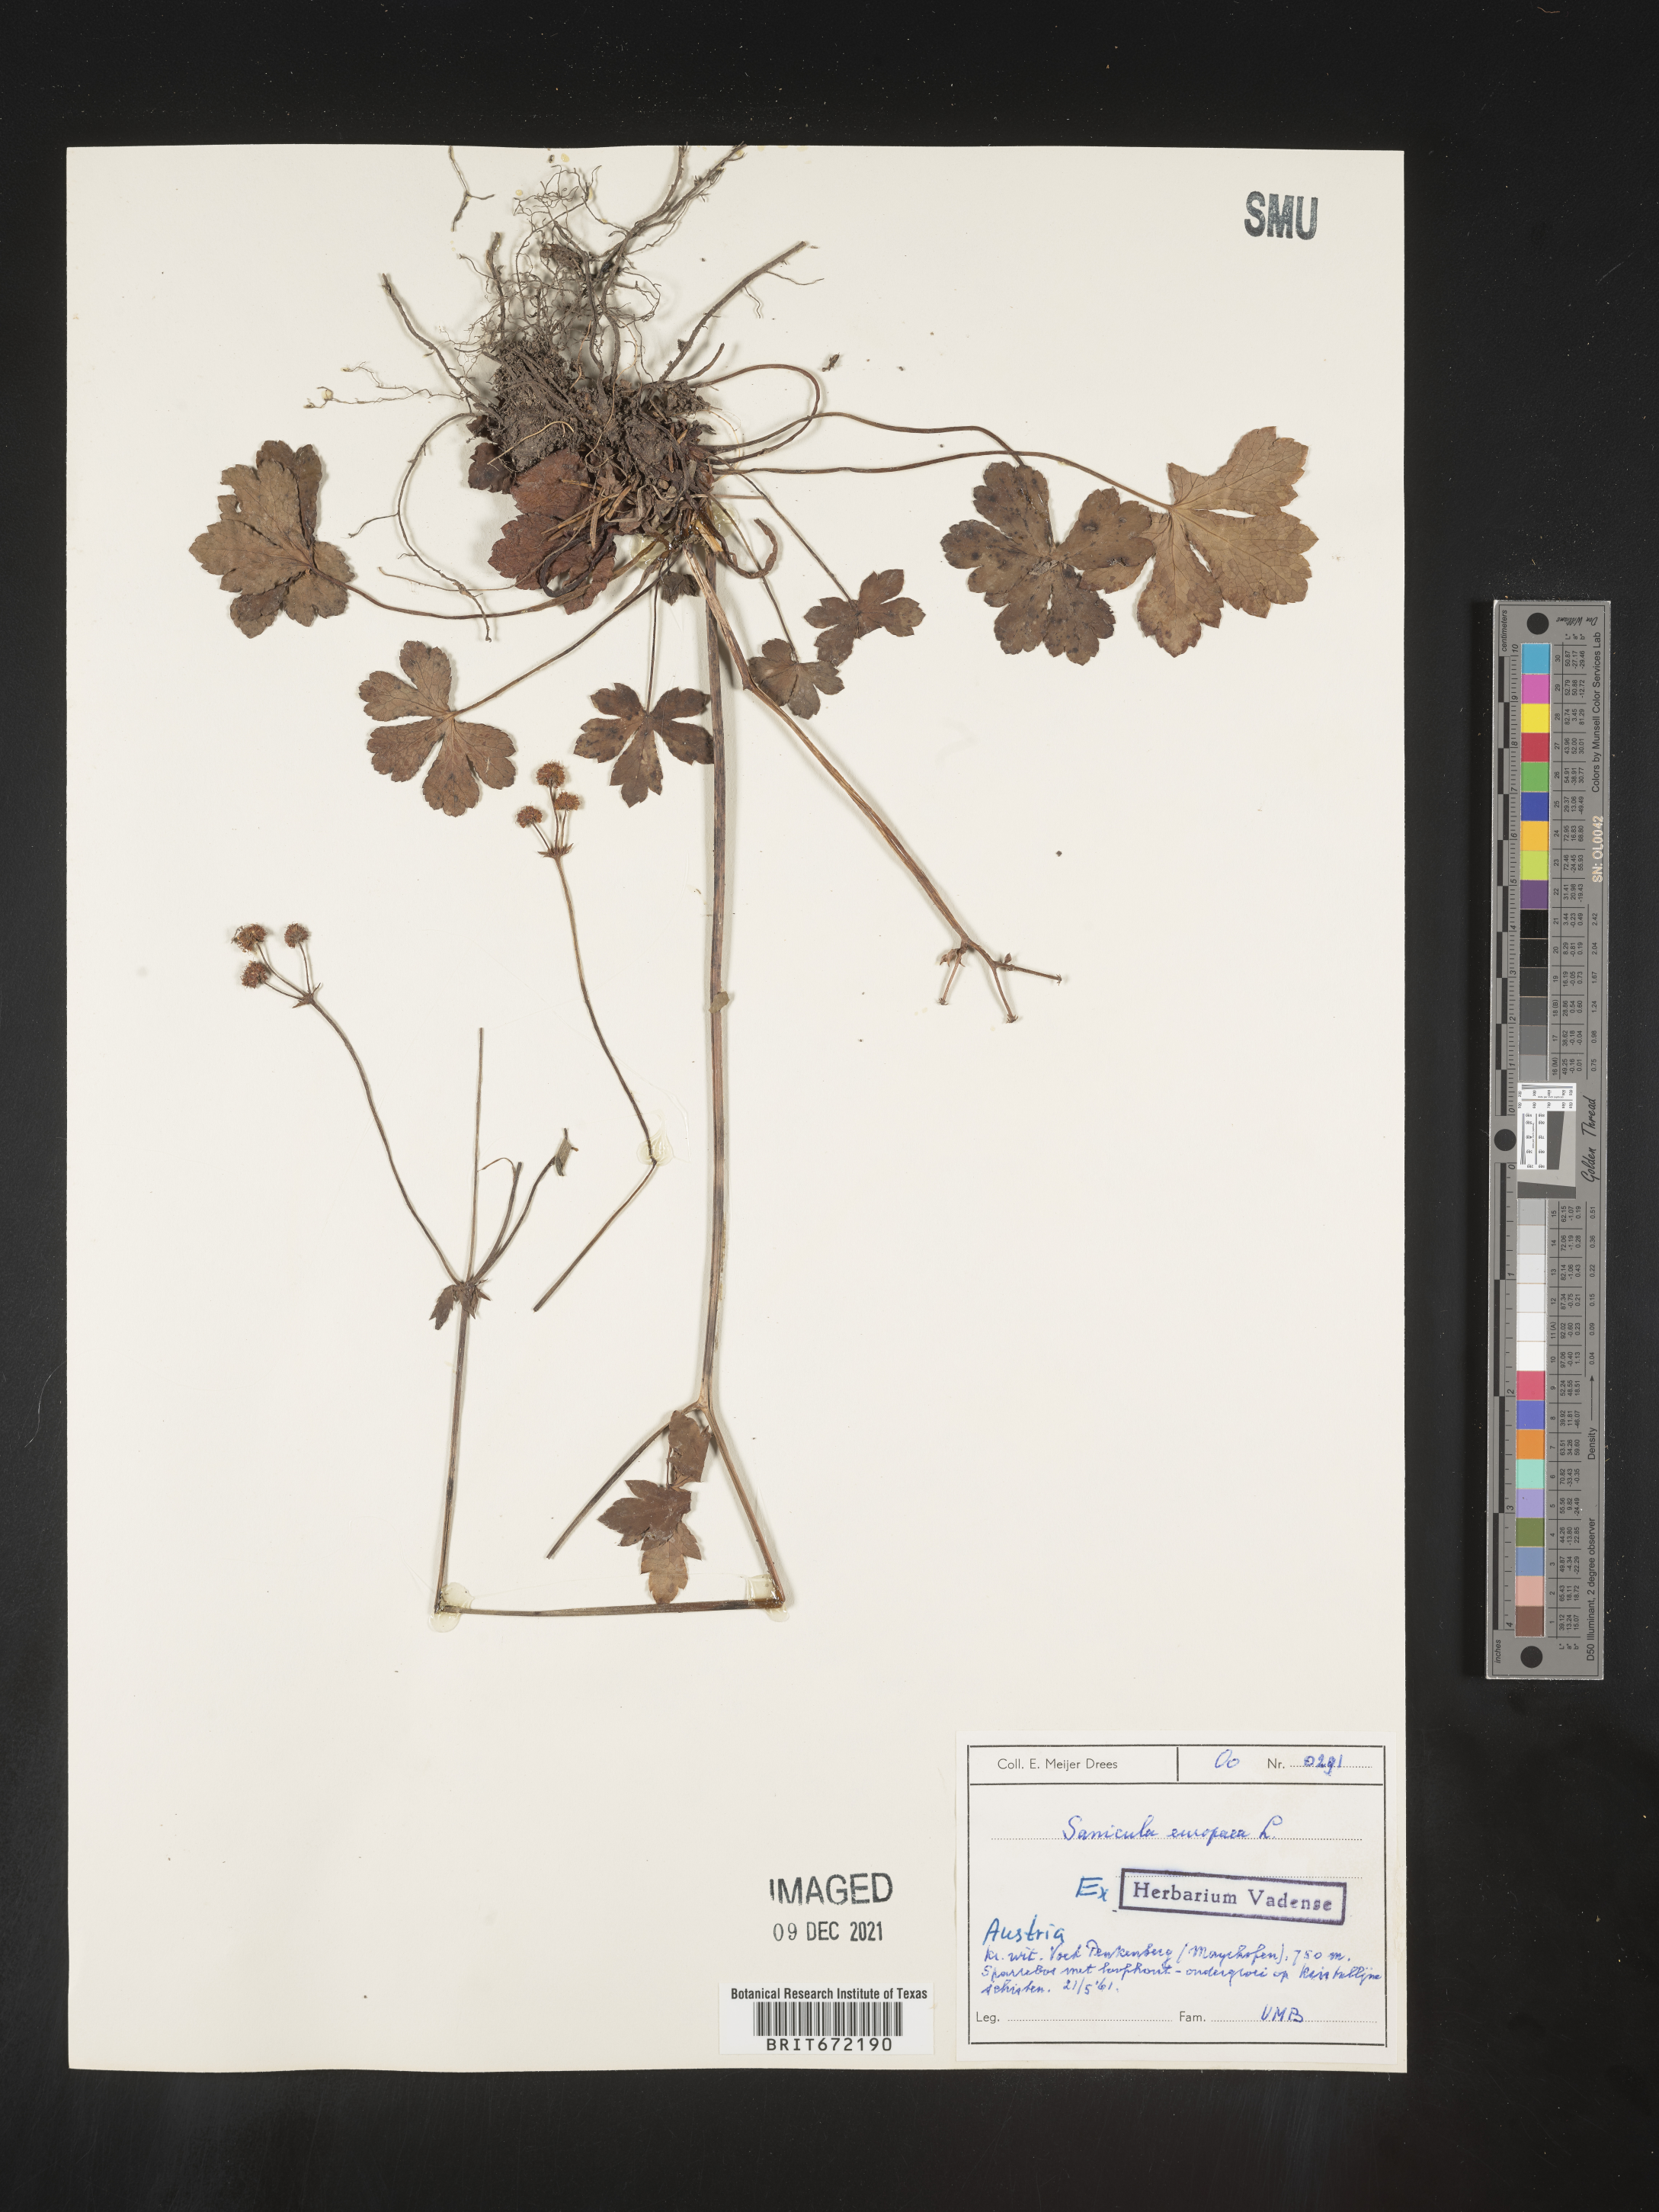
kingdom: Plantae
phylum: Tracheophyta
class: Magnoliopsida
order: Apiales
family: Apiaceae
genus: Sanicula
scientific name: Sanicula
